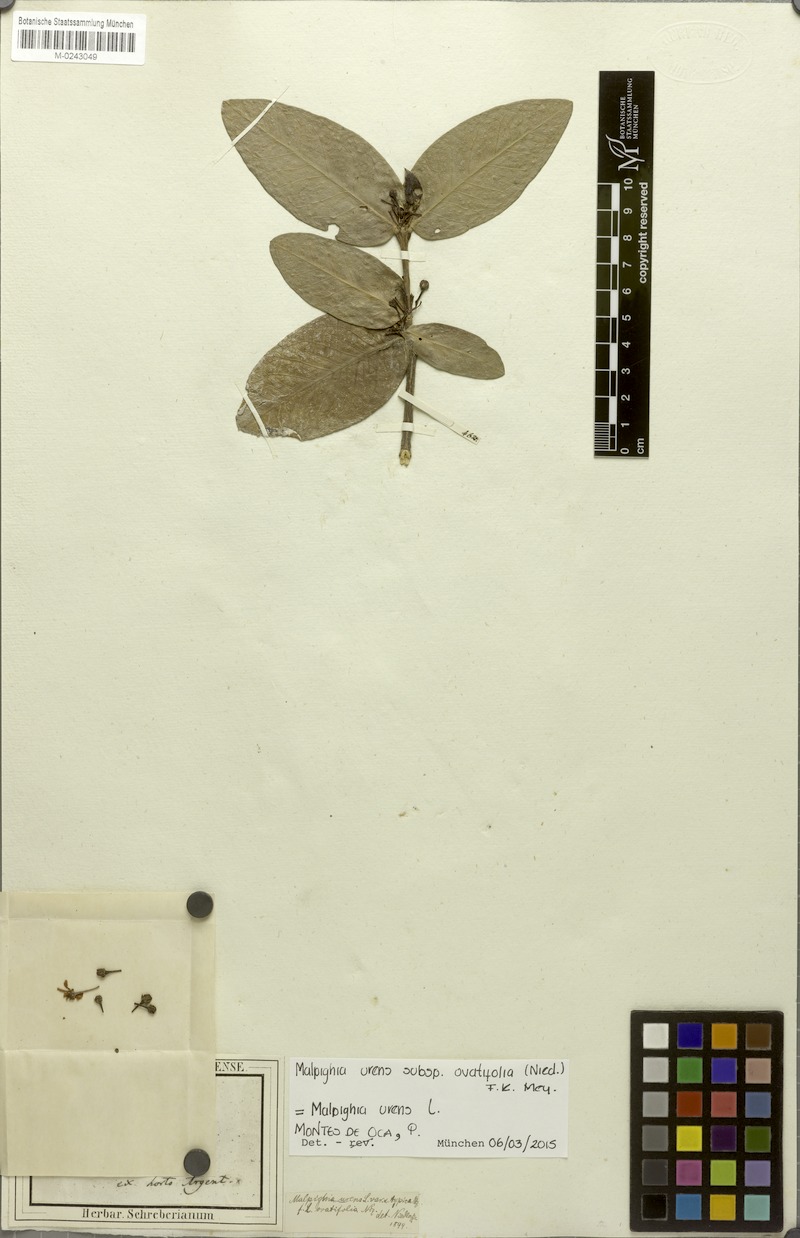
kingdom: Plantae
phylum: Tracheophyta
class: Magnoliopsida
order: Malpighiales
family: Malpighiaceae
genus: Malpighia
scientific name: Malpighia urens
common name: Cow-itch-cherry
